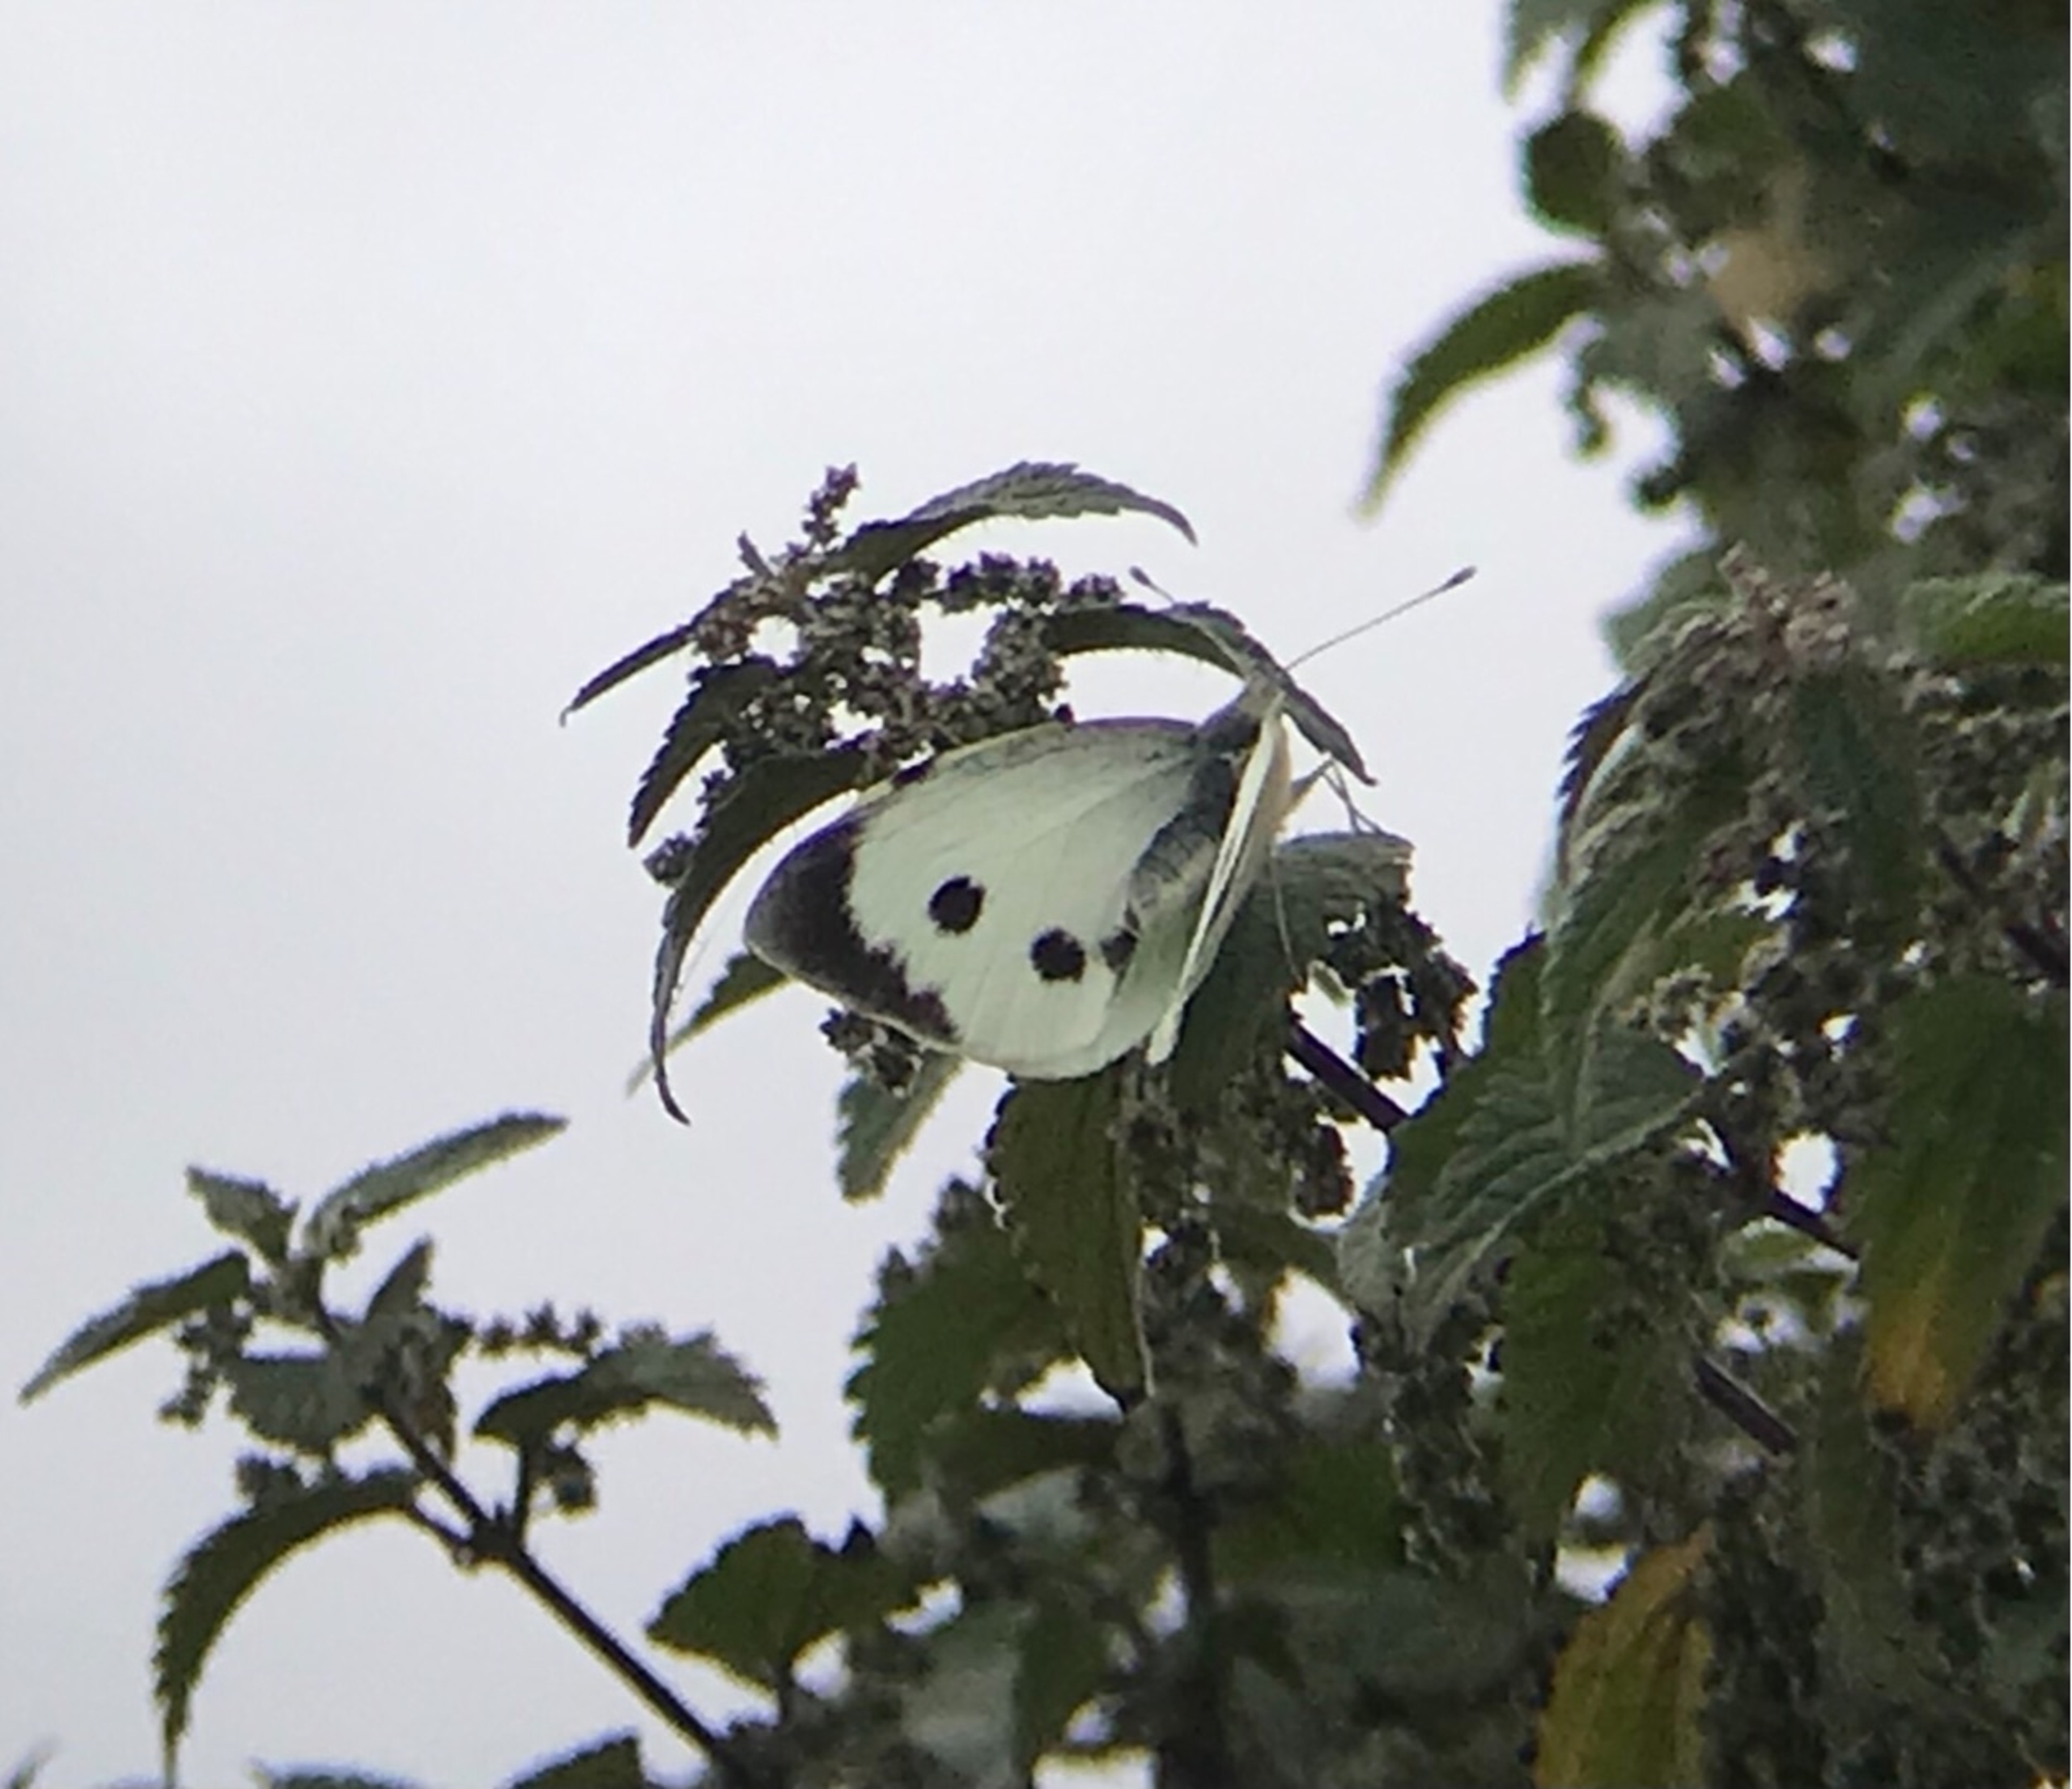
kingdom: Animalia
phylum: Arthropoda
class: Insecta
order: Lepidoptera
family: Pieridae
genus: Pieris
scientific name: Pieris brassicae
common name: Stor kålsommerfugl
